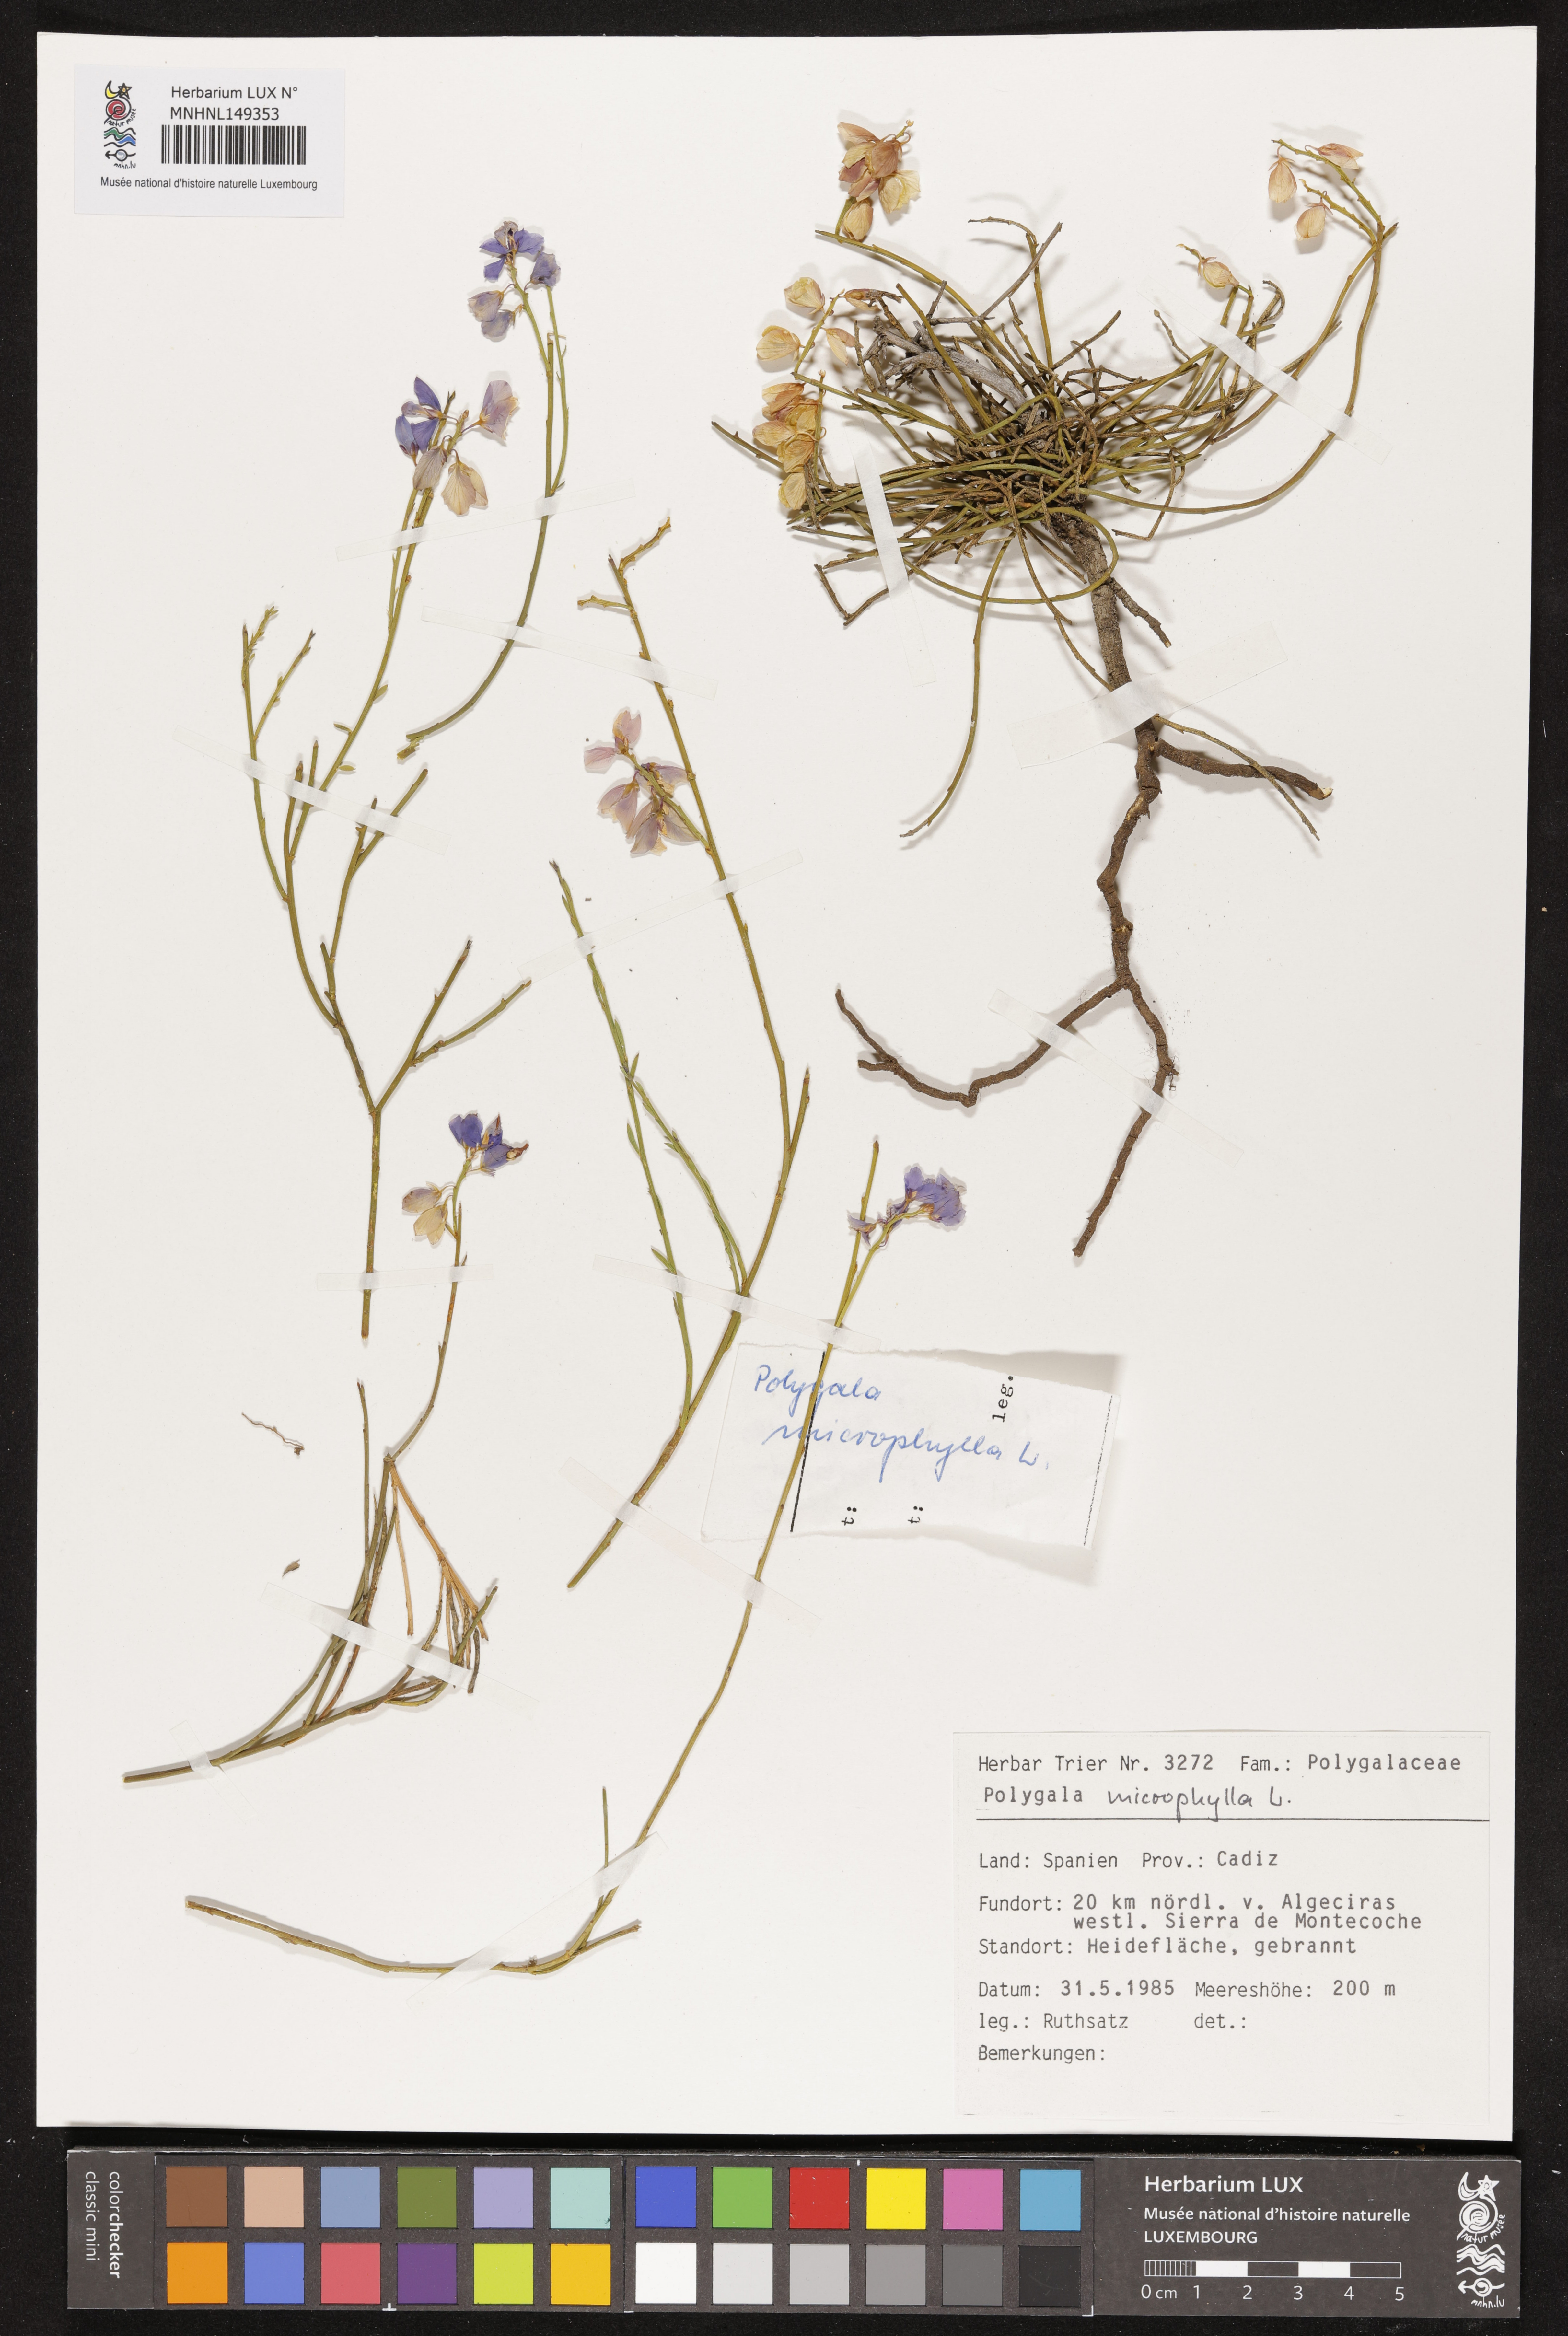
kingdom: Plantae
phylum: Tracheophyta
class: Magnoliopsida
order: Fabales
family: Polygalaceae
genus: Polygala
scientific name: Polygala microphylla
